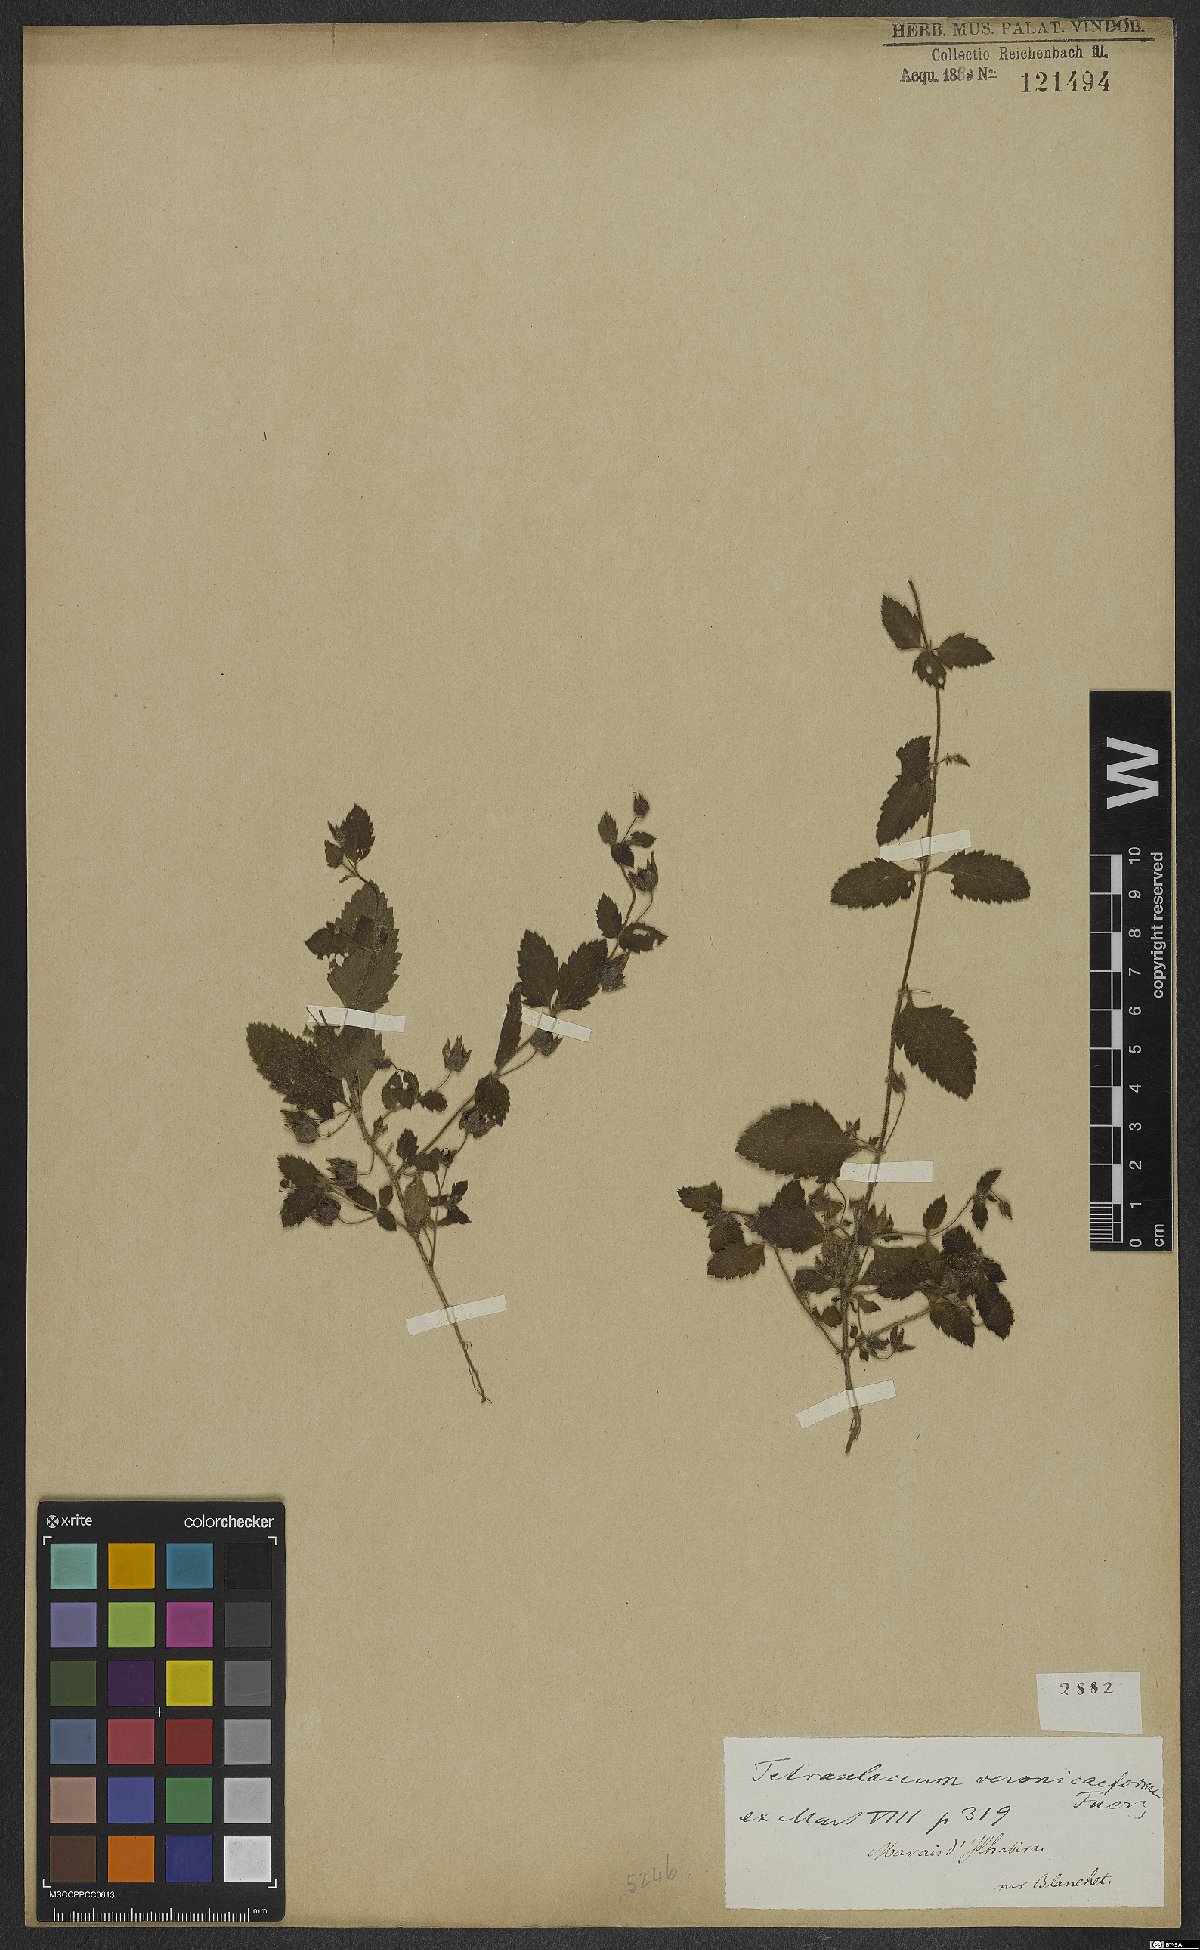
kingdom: Plantae
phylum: Tracheophyta
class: Magnoliopsida
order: Lamiales
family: Plantaginaceae
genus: Tetraulacium
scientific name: Tetraulacium veroniciforme
